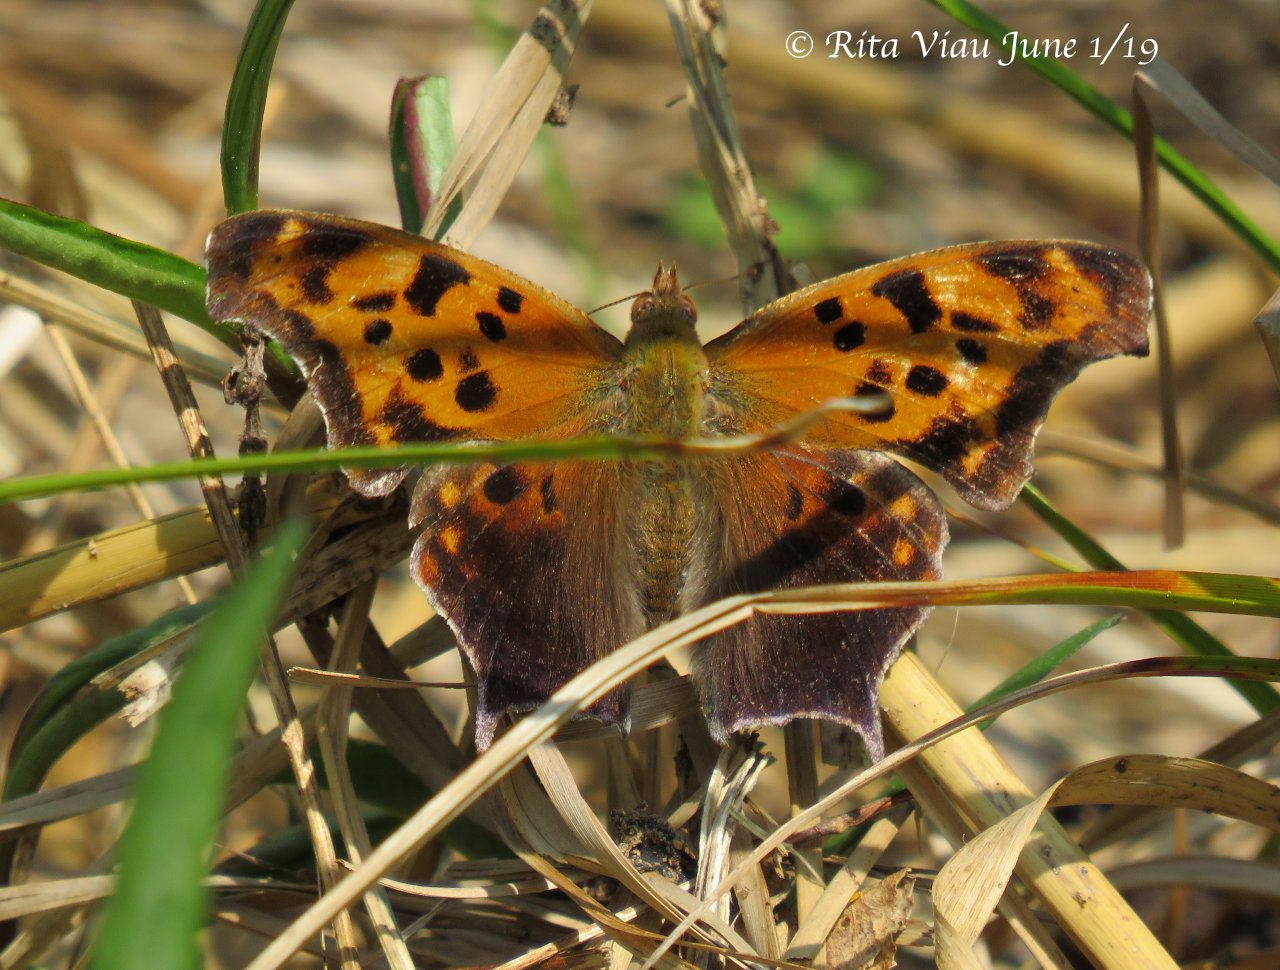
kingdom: Animalia
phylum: Arthropoda
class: Insecta
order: Lepidoptera
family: Nymphalidae
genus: Polygonia
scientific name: Polygonia interrogationis
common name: Question Mark
